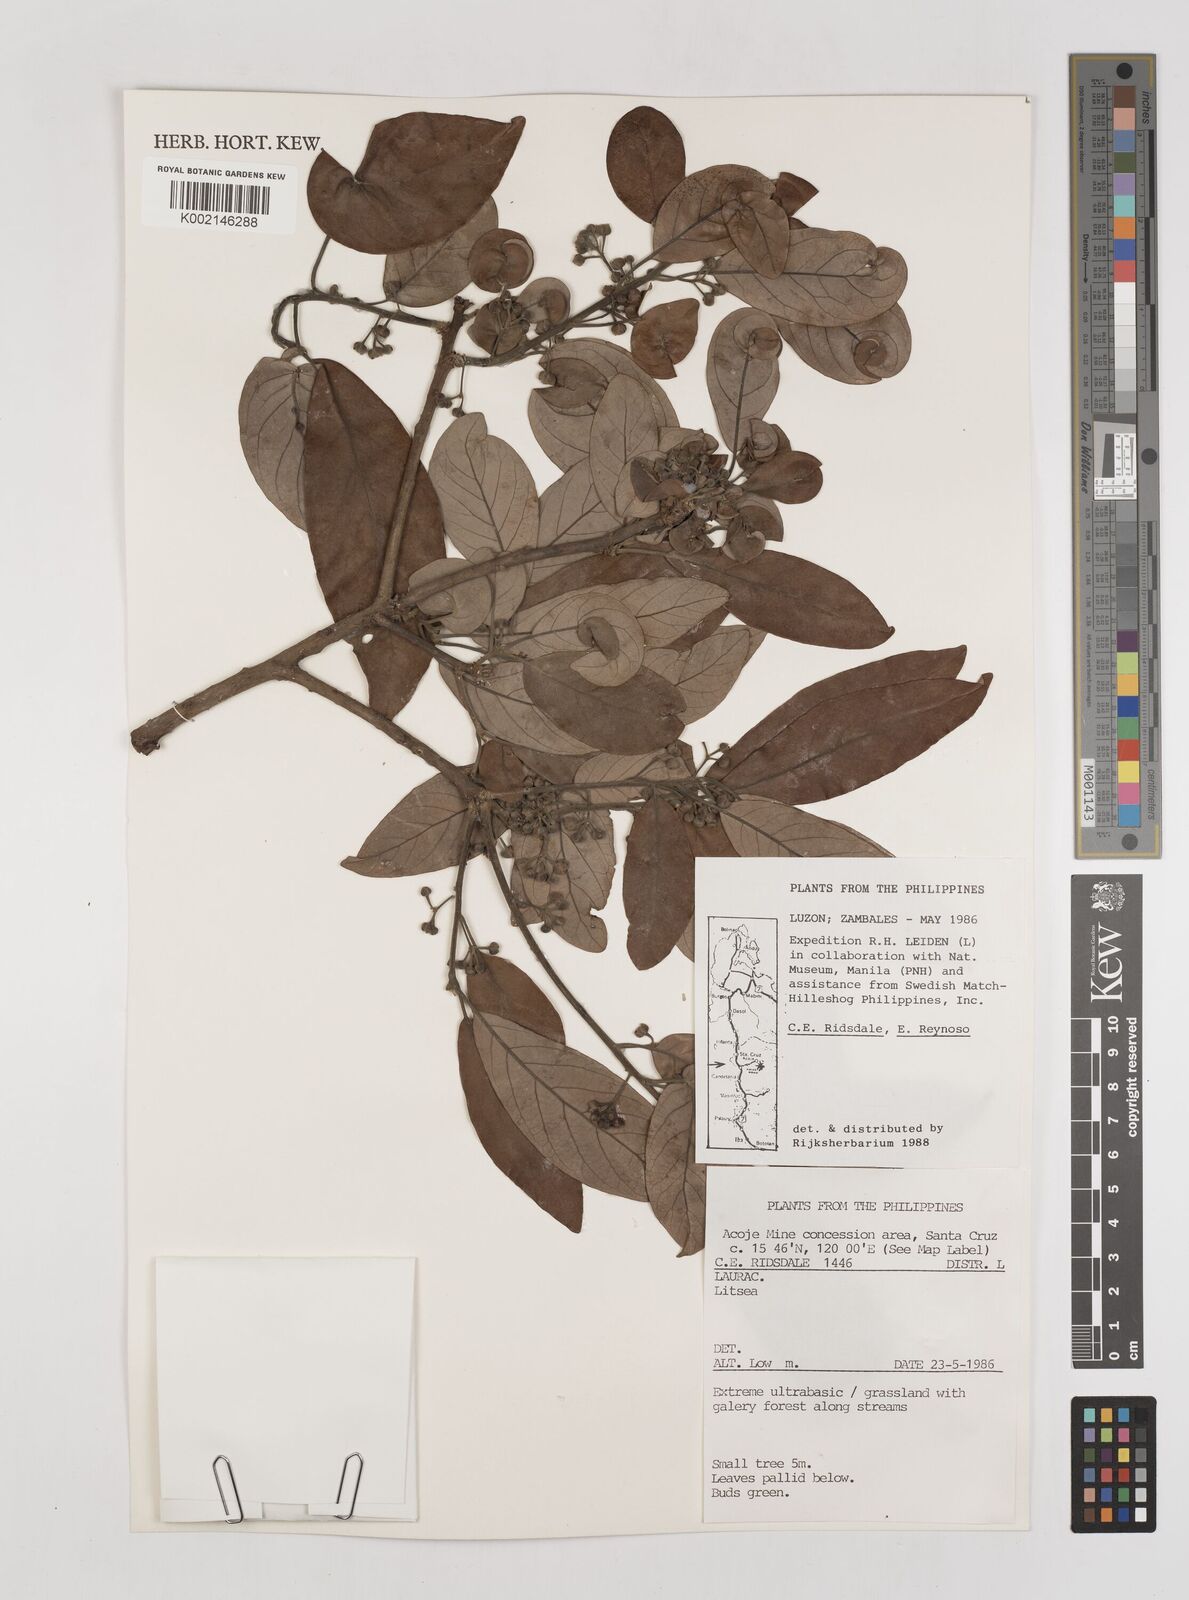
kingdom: Plantae
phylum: Tracheophyta
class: Magnoliopsida
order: Laurales
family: Lauraceae
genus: Litsea
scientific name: Litsea
